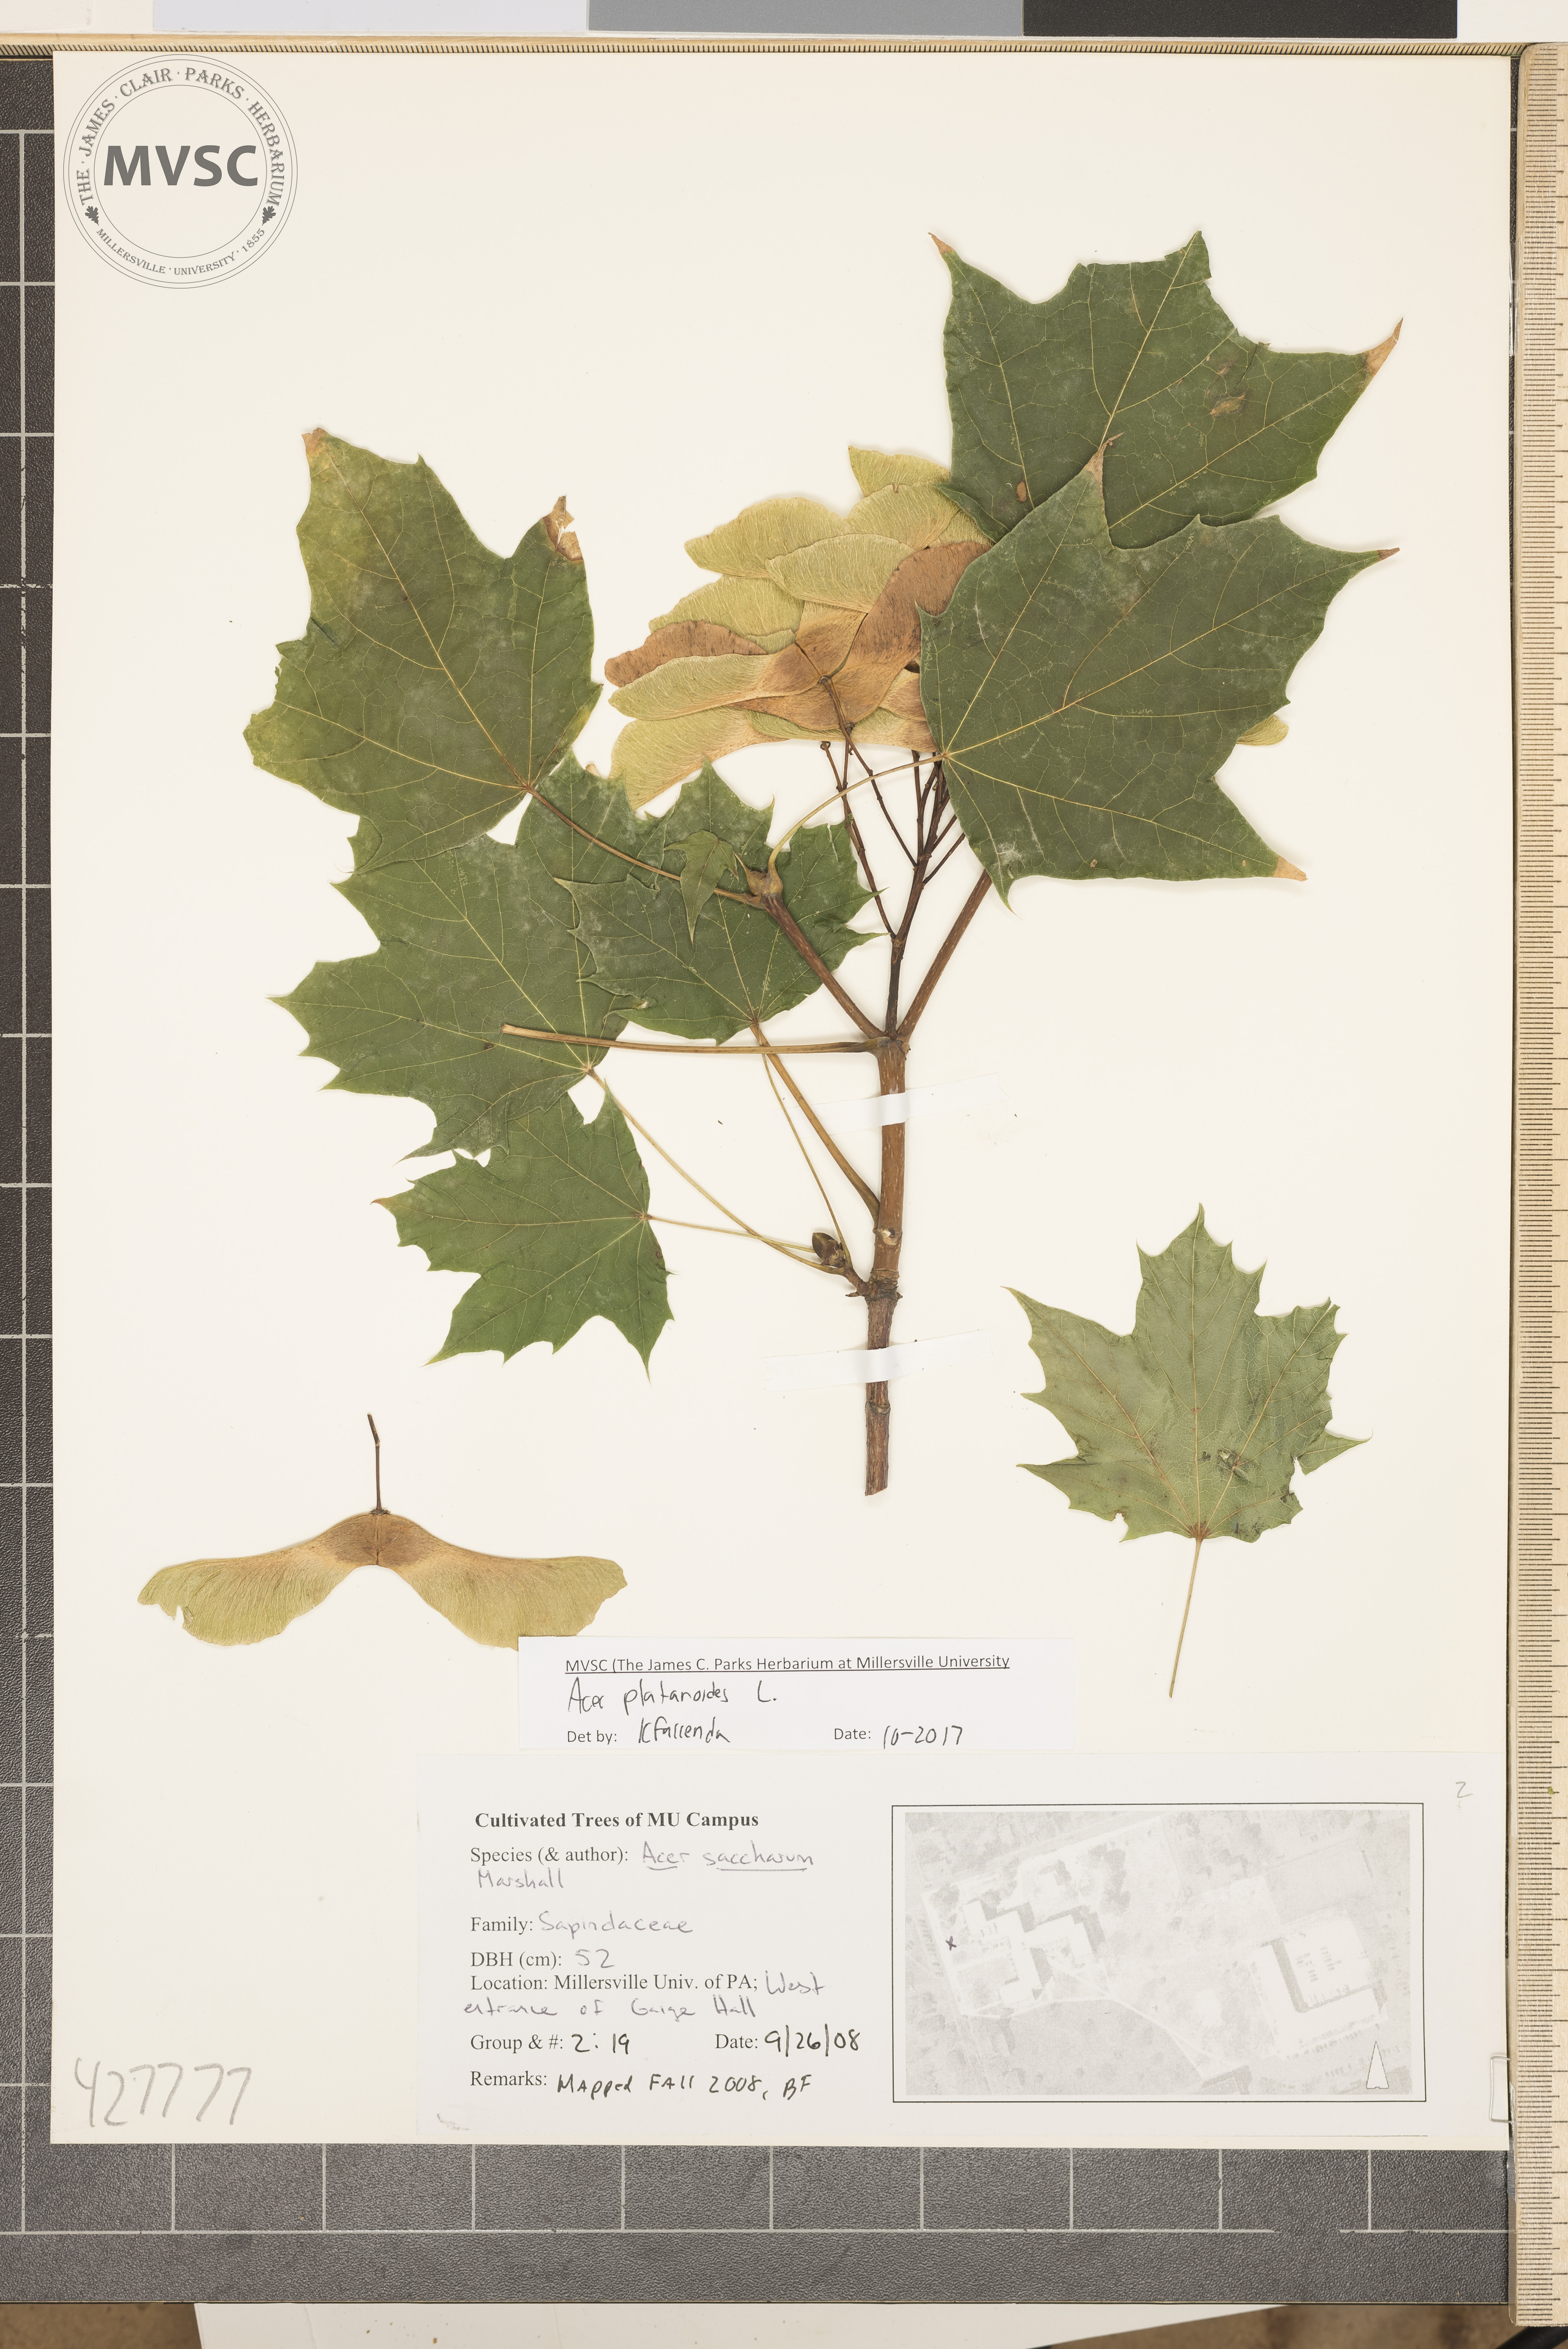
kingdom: Plantae
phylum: Tracheophyta
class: Magnoliopsida
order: Sapindales
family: Sapindaceae
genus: Acer
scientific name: Acer platanoides
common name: Norway maple
